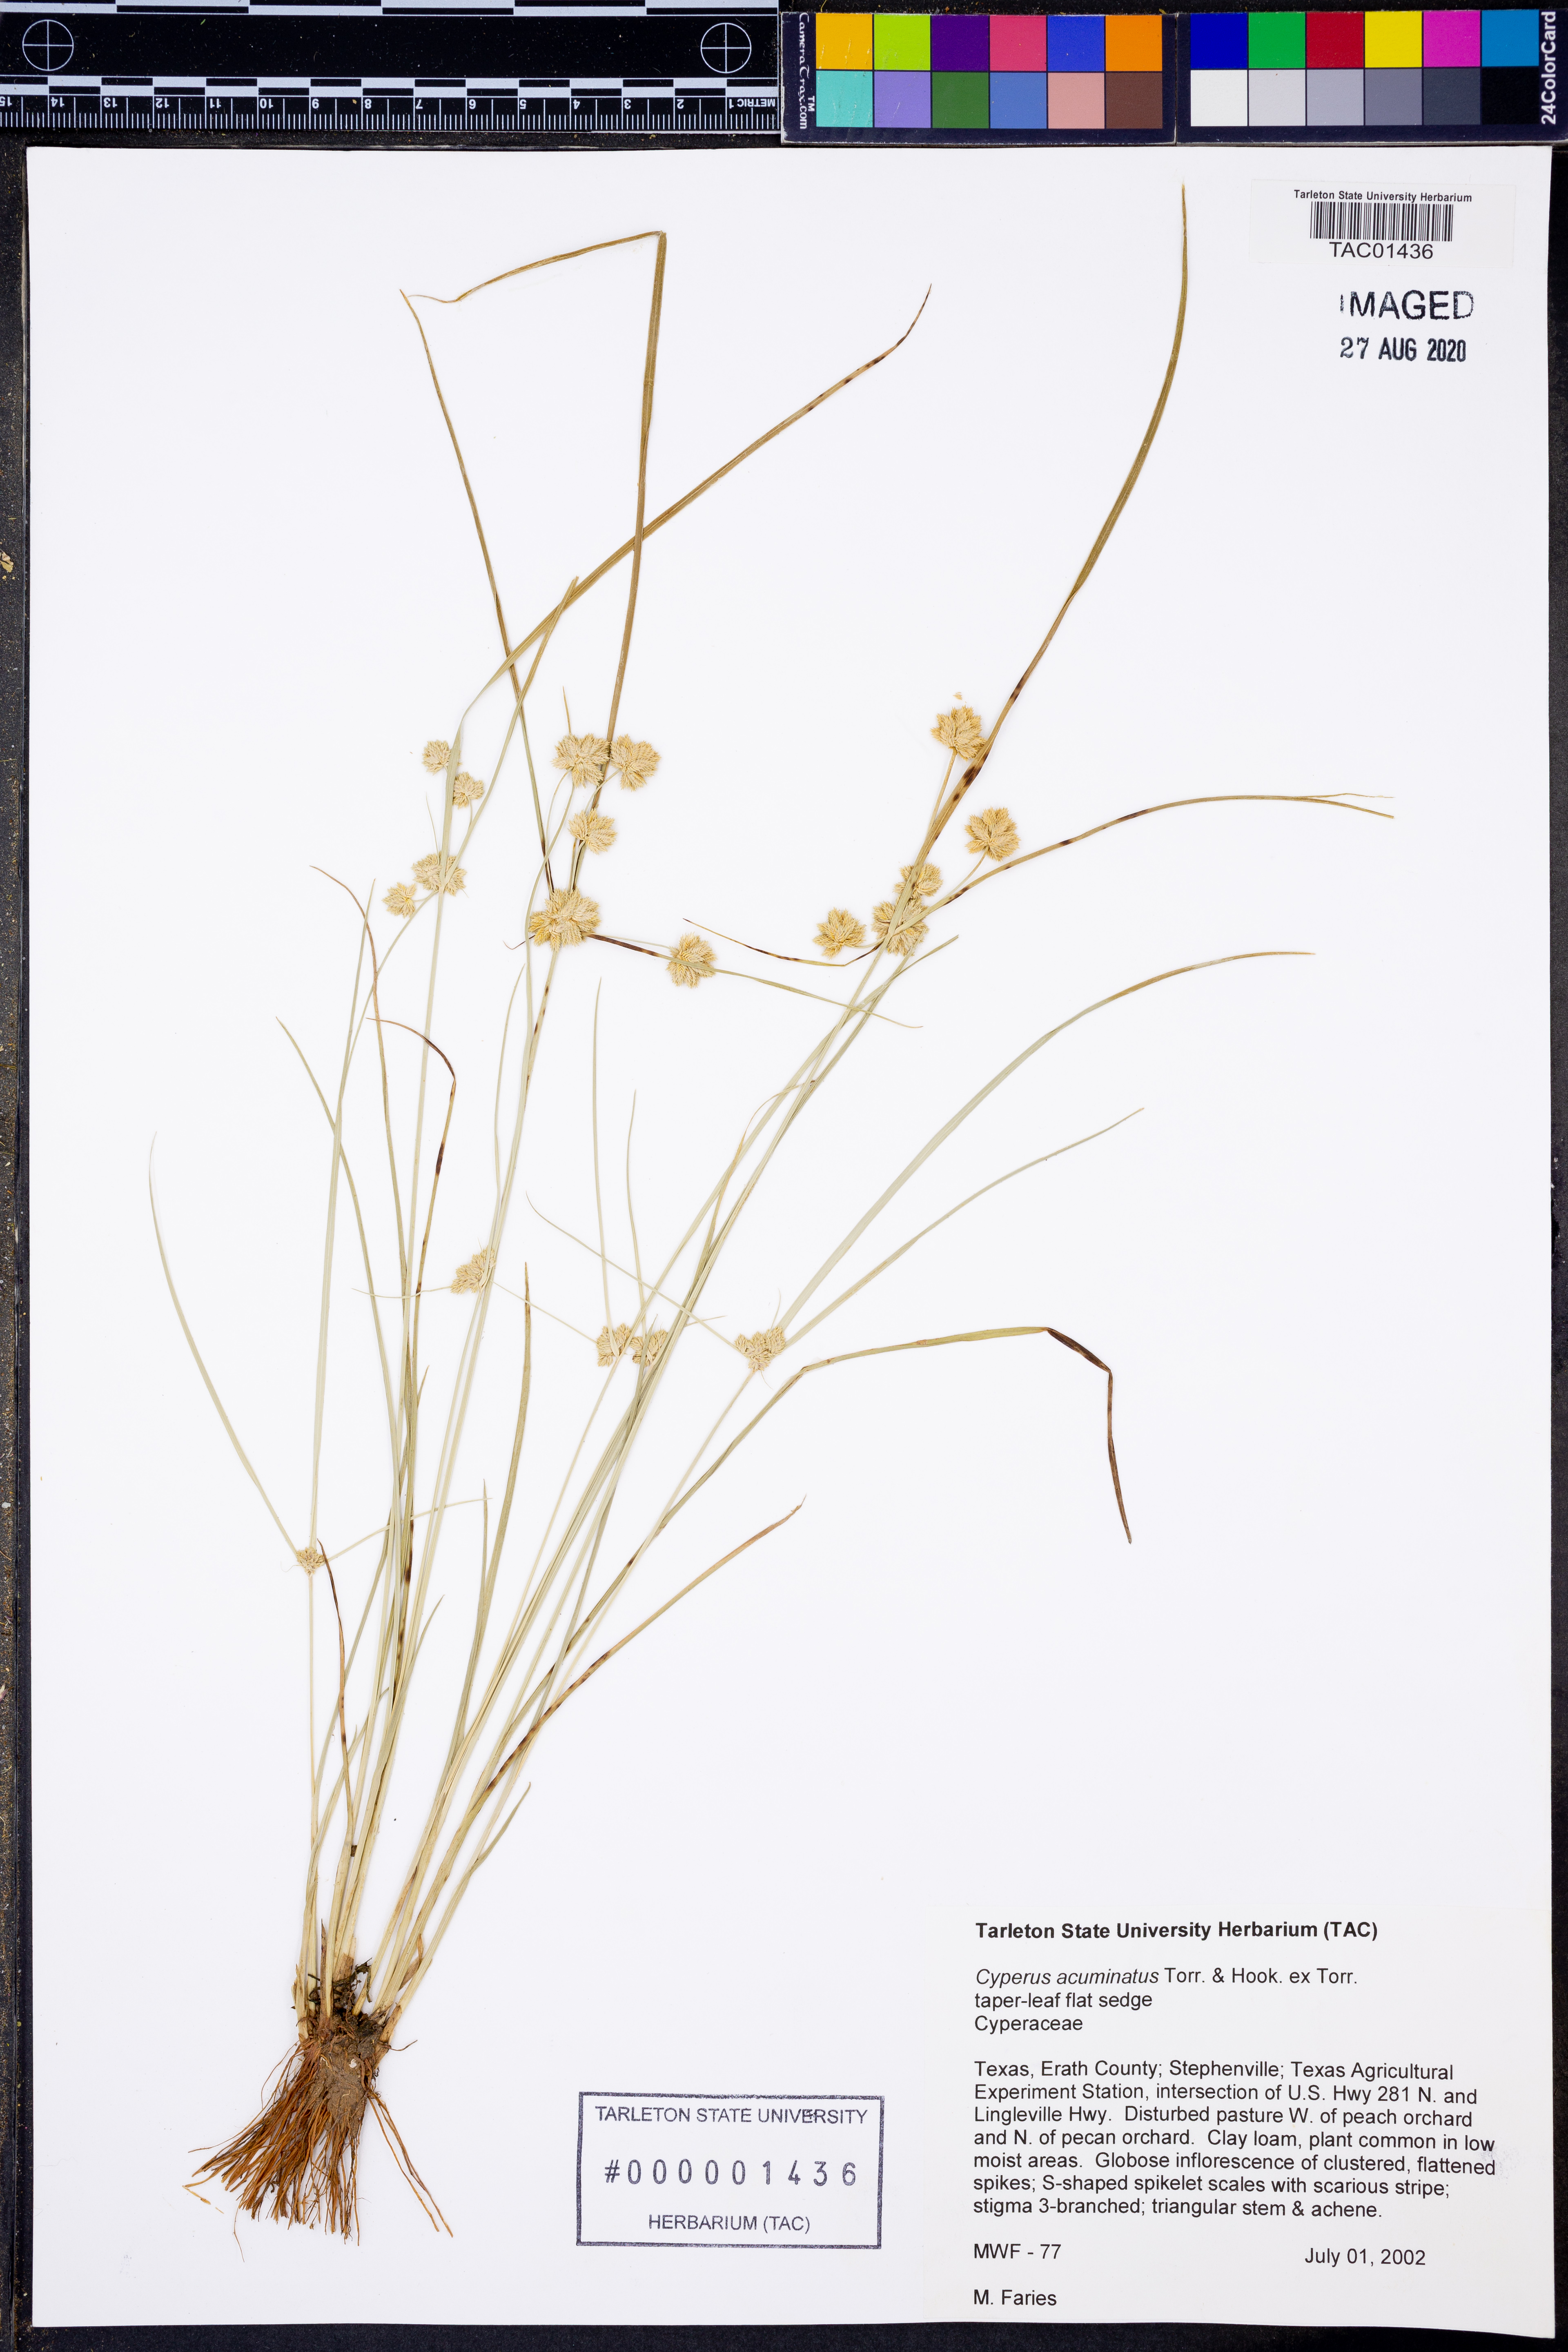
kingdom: Plantae
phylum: Tracheophyta
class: Liliopsida
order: Poales
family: Cyperaceae
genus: Cyperus
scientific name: Cyperus acuminatus
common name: Short-pointed cyperus
